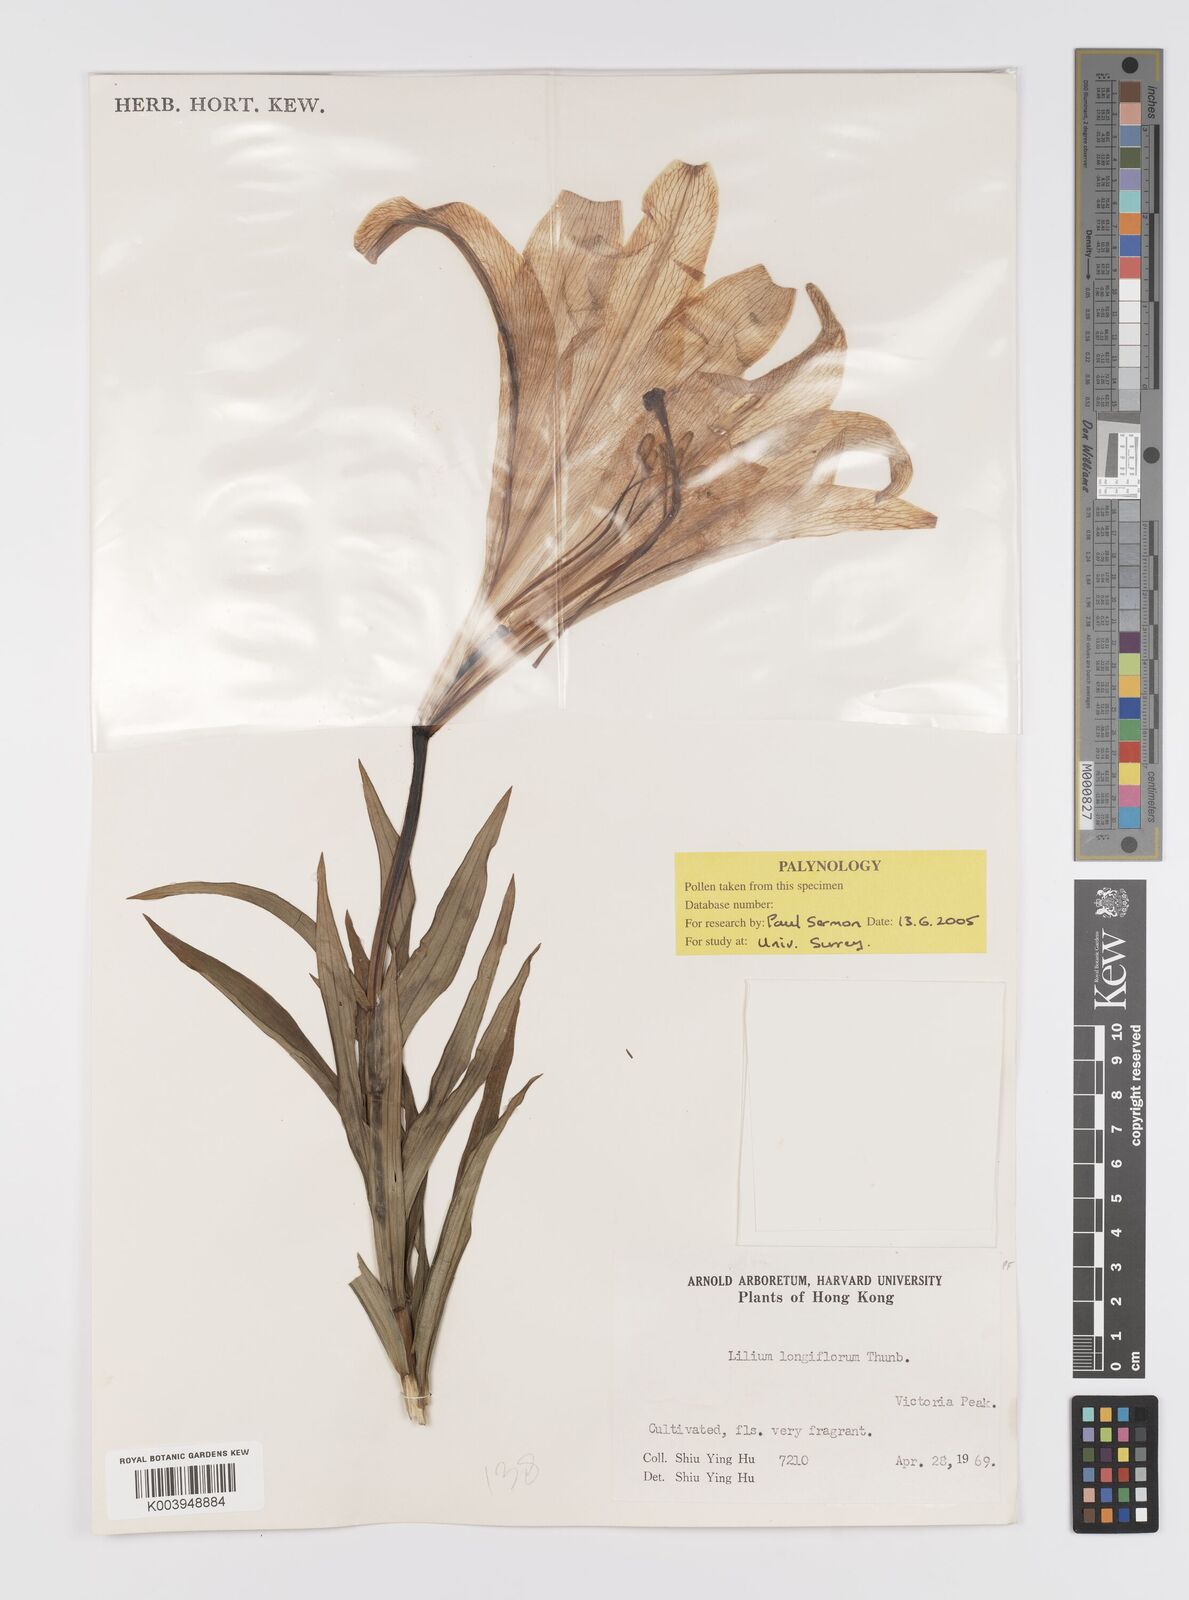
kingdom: Plantae
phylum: Tracheophyta
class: Liliopsida
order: Liliales
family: Liliaceae
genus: Lilium
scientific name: Lilium longiflorum
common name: Easter lily
